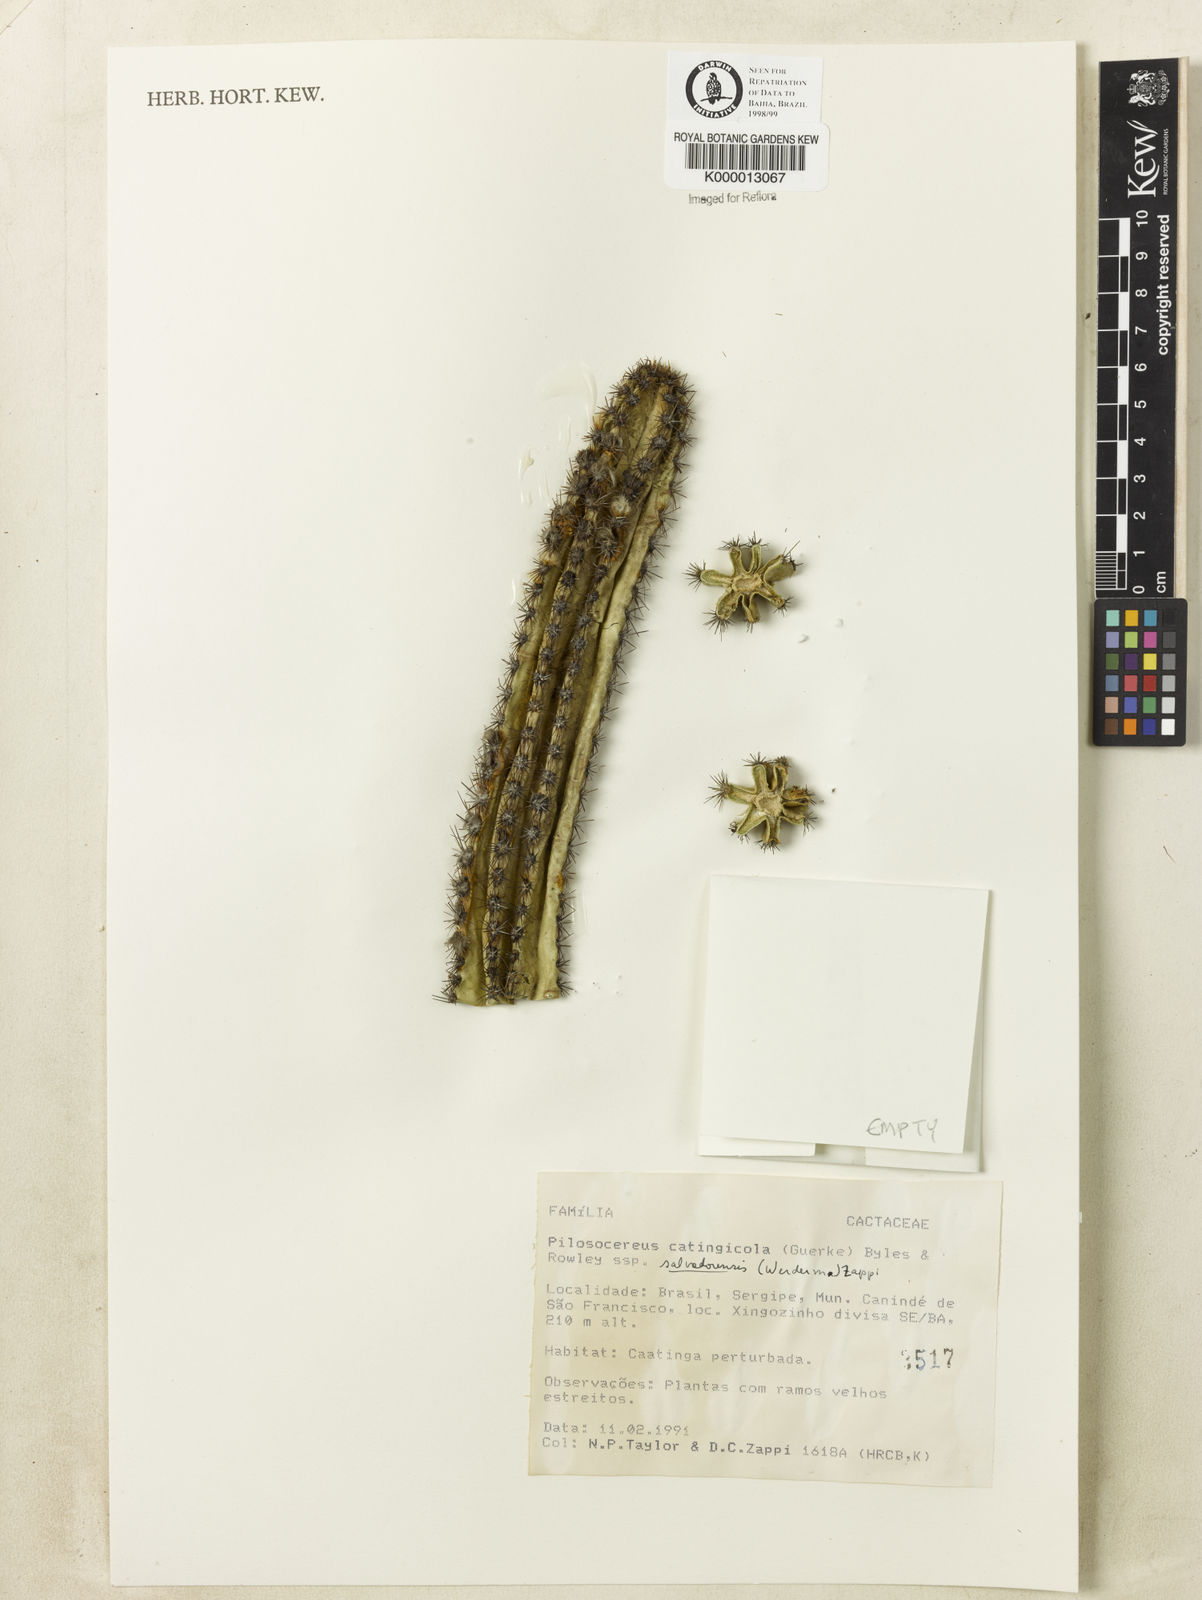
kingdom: Plantae
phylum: Tracheophyta
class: Magnoliopsida
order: Caryophyllales
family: Cactaceae
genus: Pilosocereus
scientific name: Pilosocereus catingicola
